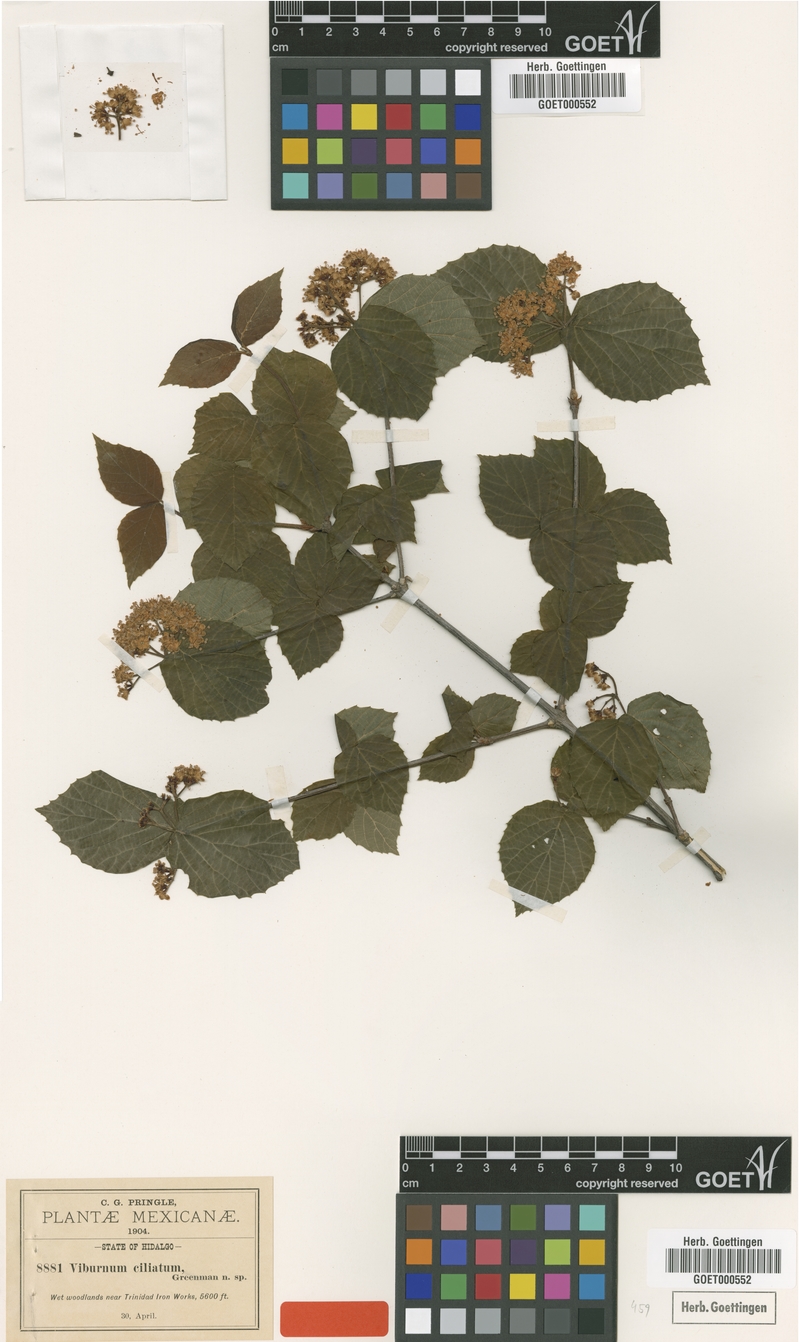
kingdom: Plantae
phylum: Tracheophyta
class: Magnoliopsida
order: Dipsacales
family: Viburnaceae
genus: Viburnum
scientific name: Viburnum ciliatum
